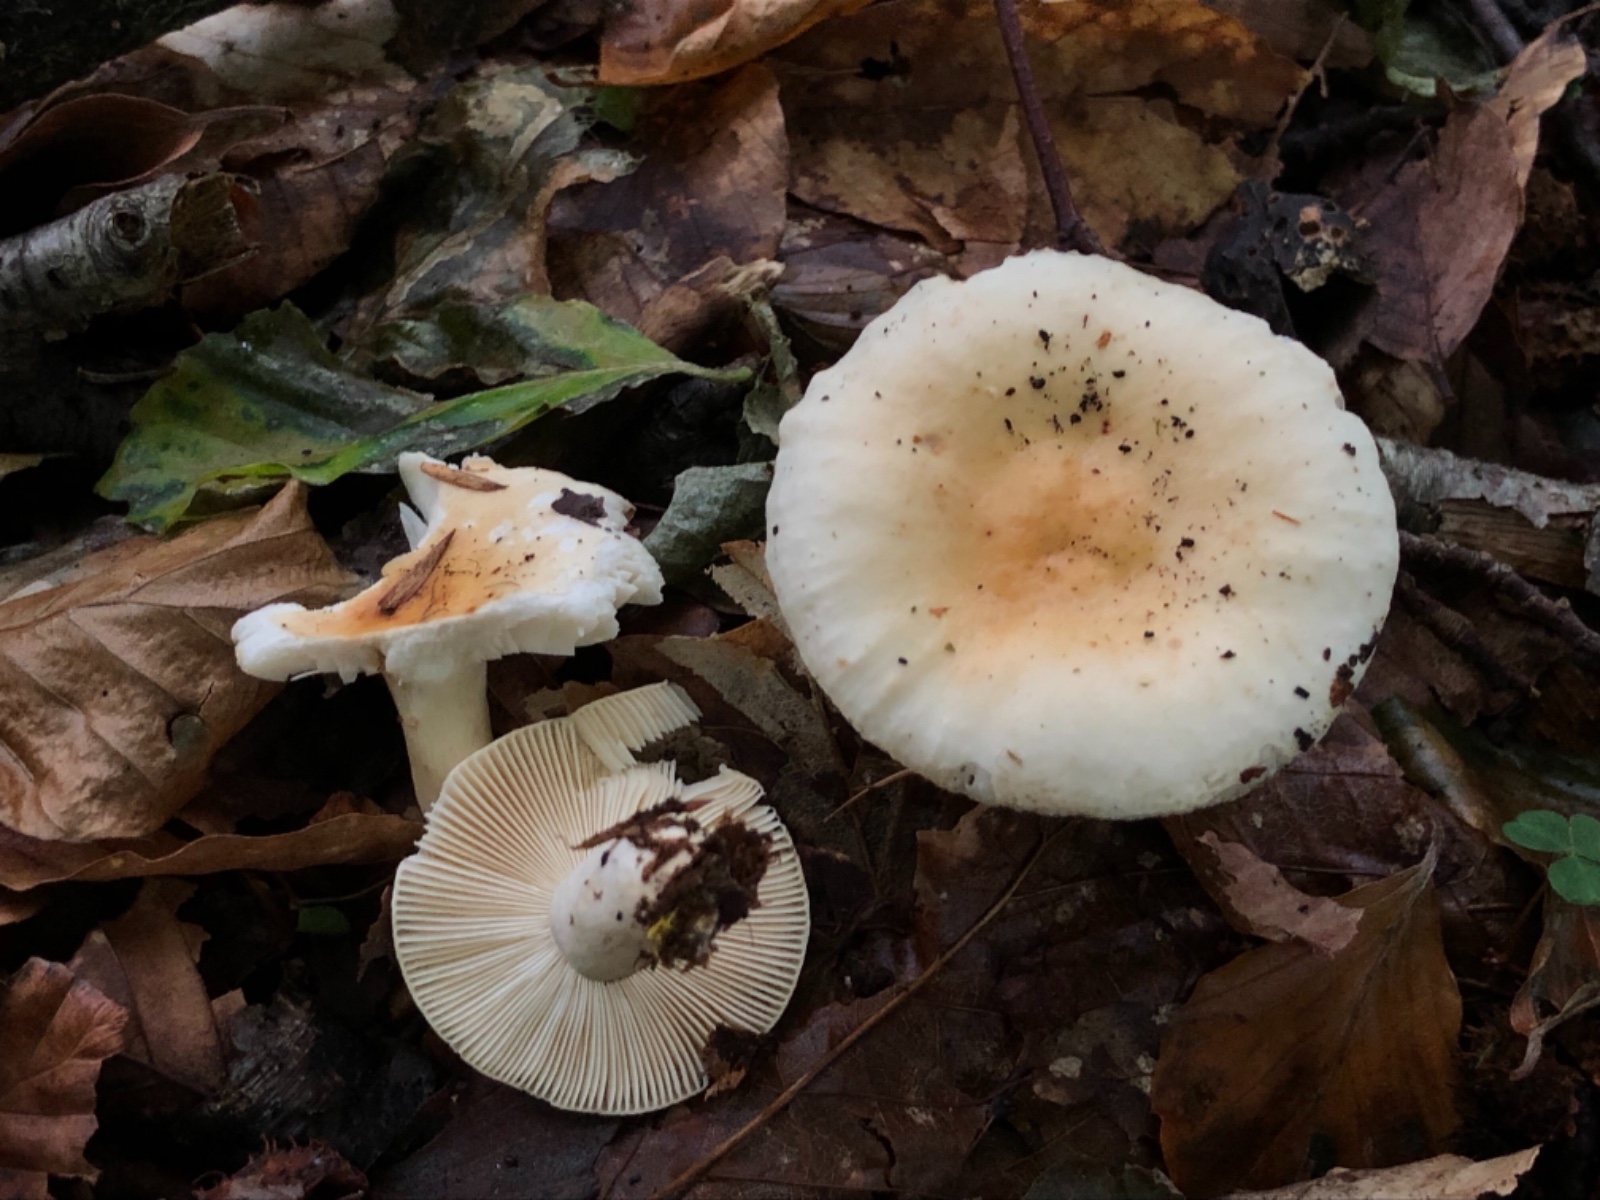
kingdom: Fungi
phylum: Basidiomycota
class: Agaricomycetes
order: Russulales
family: Russulaceae
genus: Russula
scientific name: Russula fellea
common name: galde-skørhat
